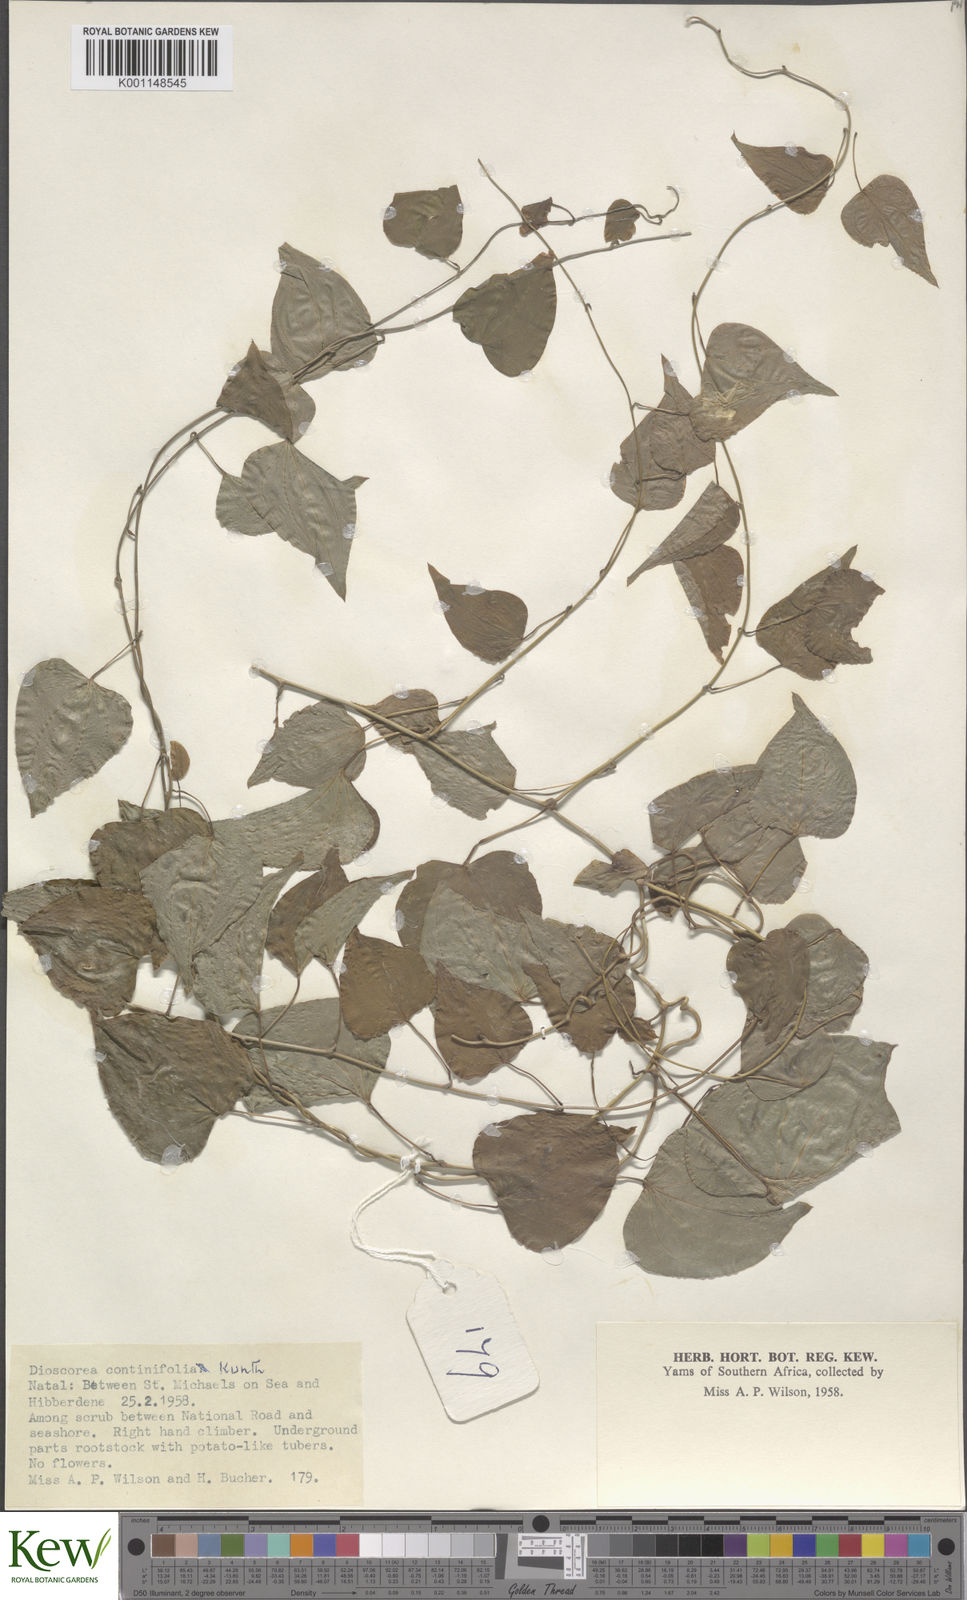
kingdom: Plantae
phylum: Tracheophyta
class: Liliopsida
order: Dioscoreales
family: Dioscoreaceae
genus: Dioscorea
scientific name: Dioscorea cotinifolia
